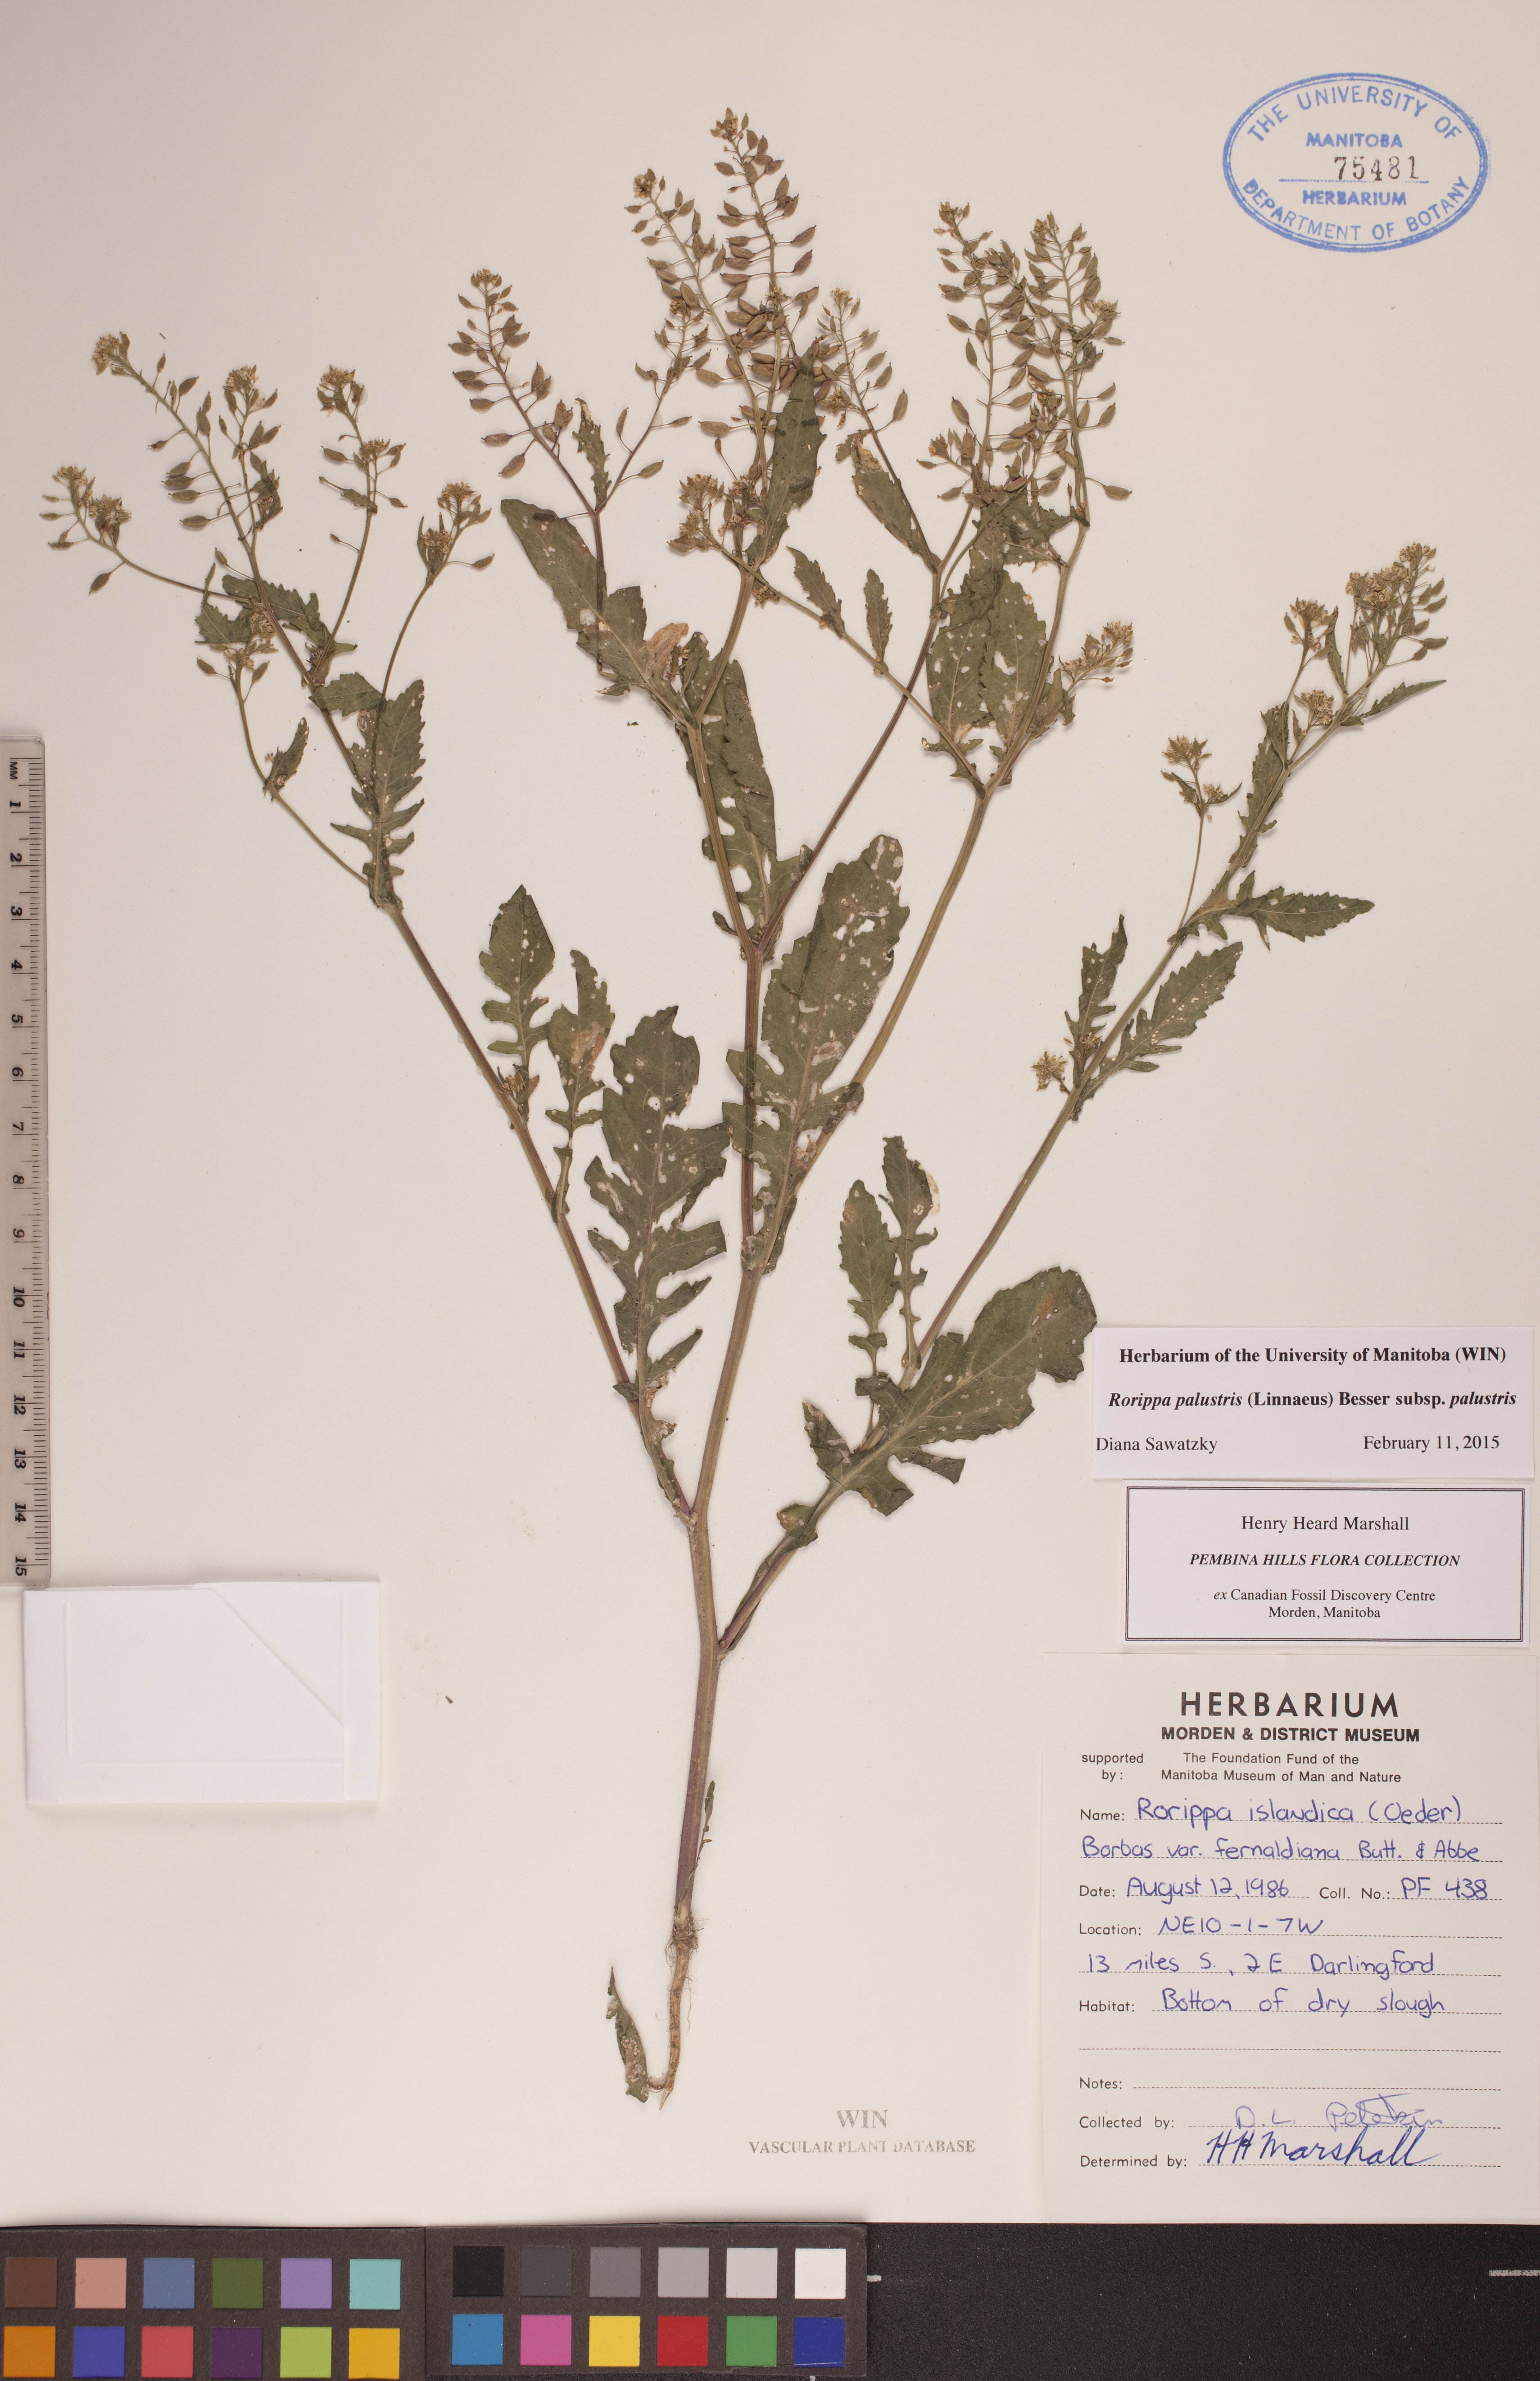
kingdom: Plantae
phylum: Tracheophyta
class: Magnoliopsida
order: Brassicales
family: Brassicaceae
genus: Rorippa
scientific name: Rorippa palustris
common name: Marsh yellow-cress
